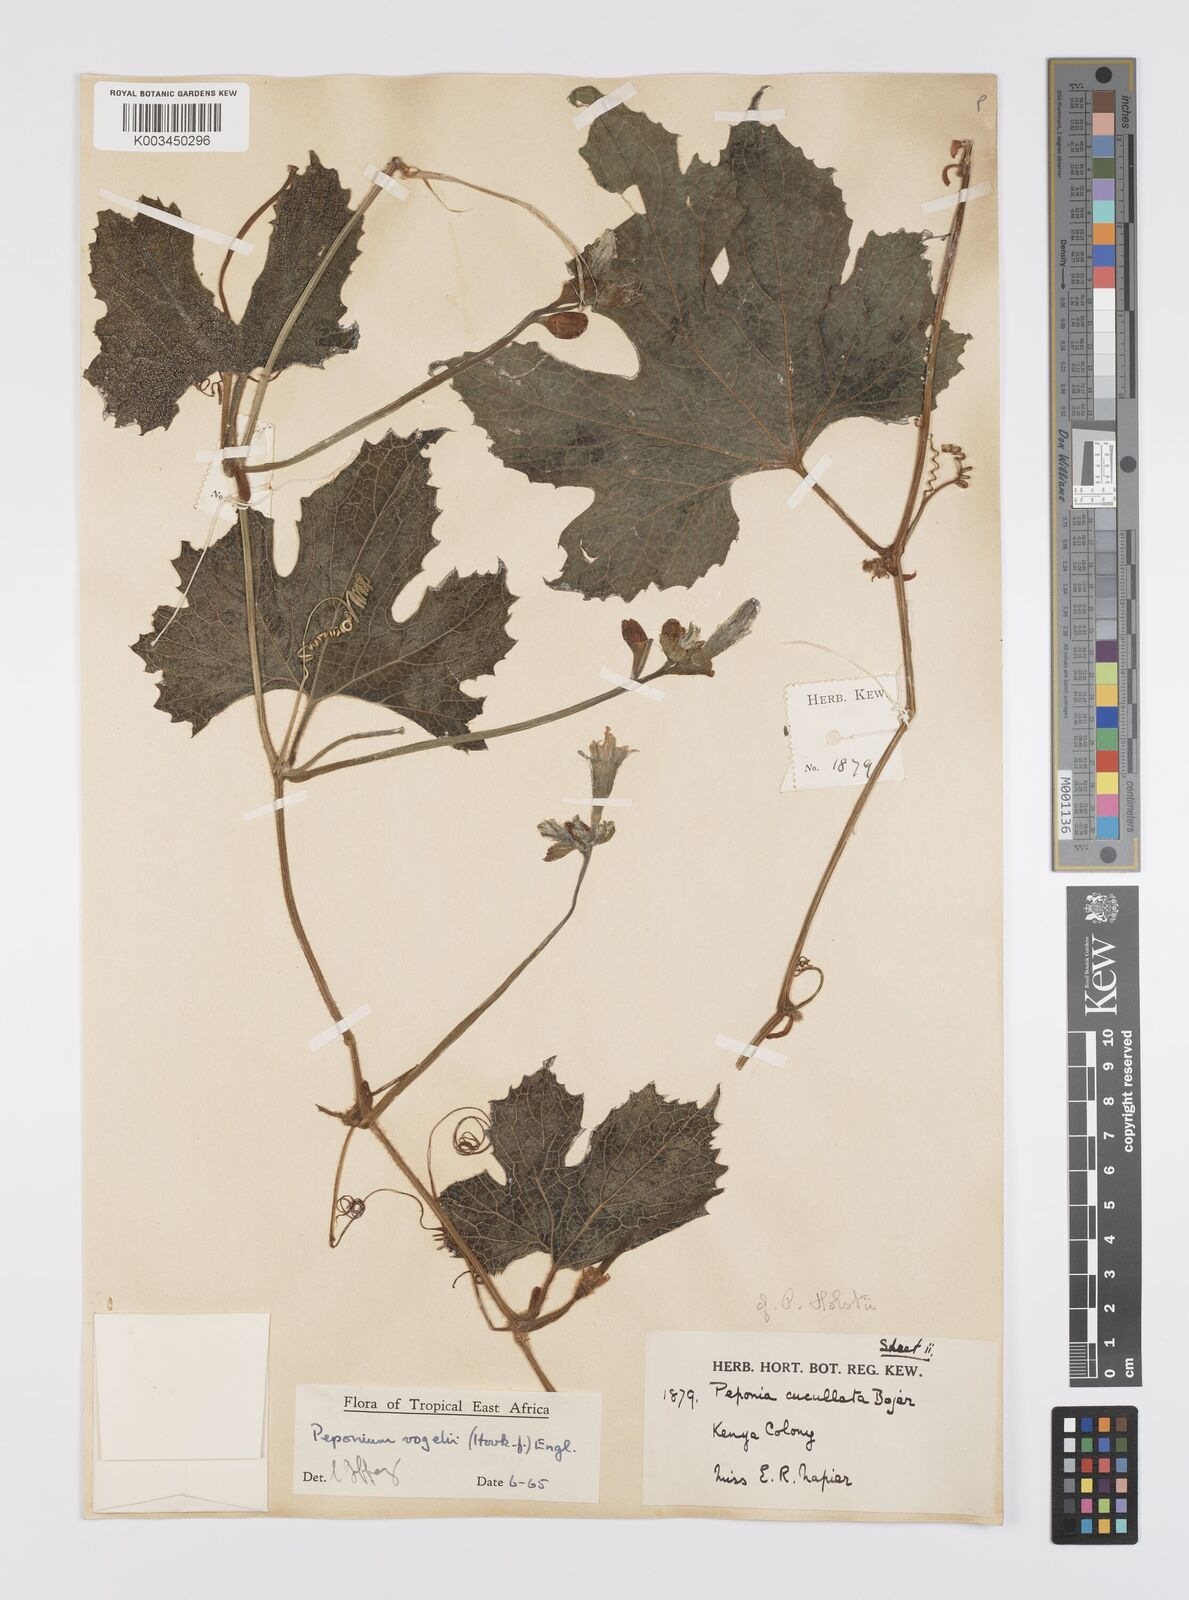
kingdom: Plantae
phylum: Tracheophyta
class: Magnoliopsida
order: Cucurbitales
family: Cucurbitaceae
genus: Peponium
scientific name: Peponium vogelii
